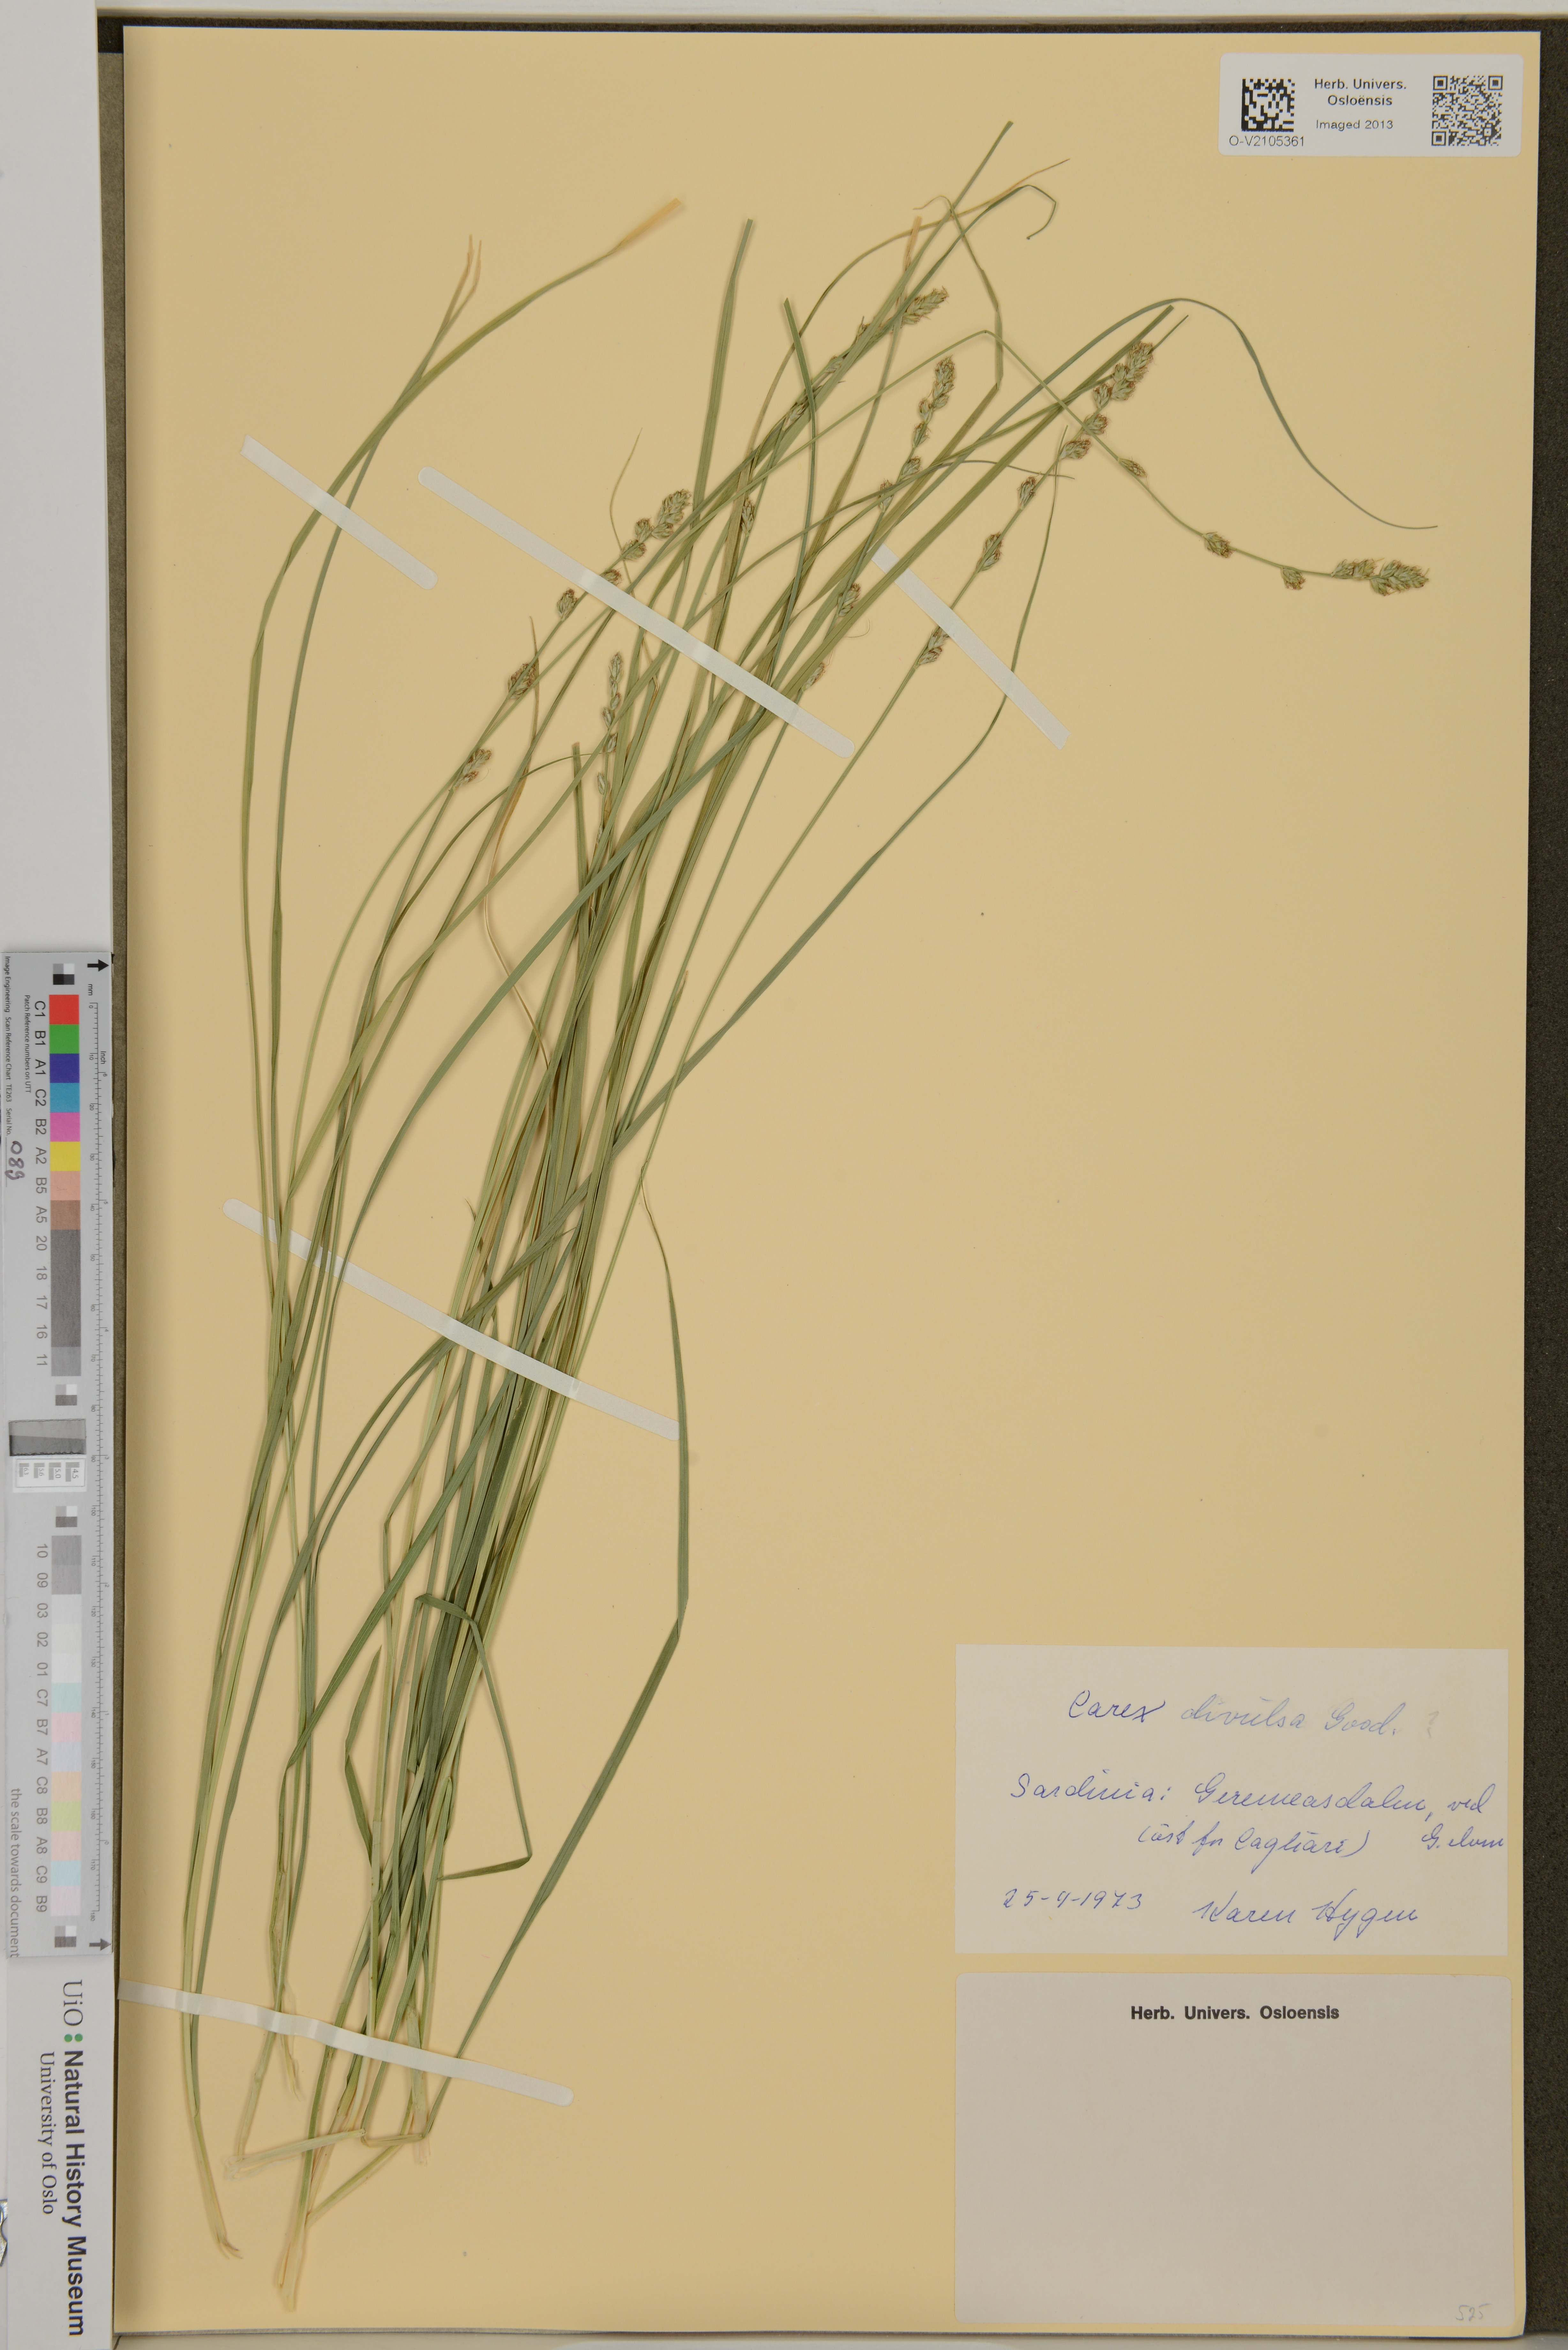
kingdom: Plantae
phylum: Tracheophyta
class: Liliopsida
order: Poales
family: Cyperaceae
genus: Carex
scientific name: Carex divulsa
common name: Grassland sedge
